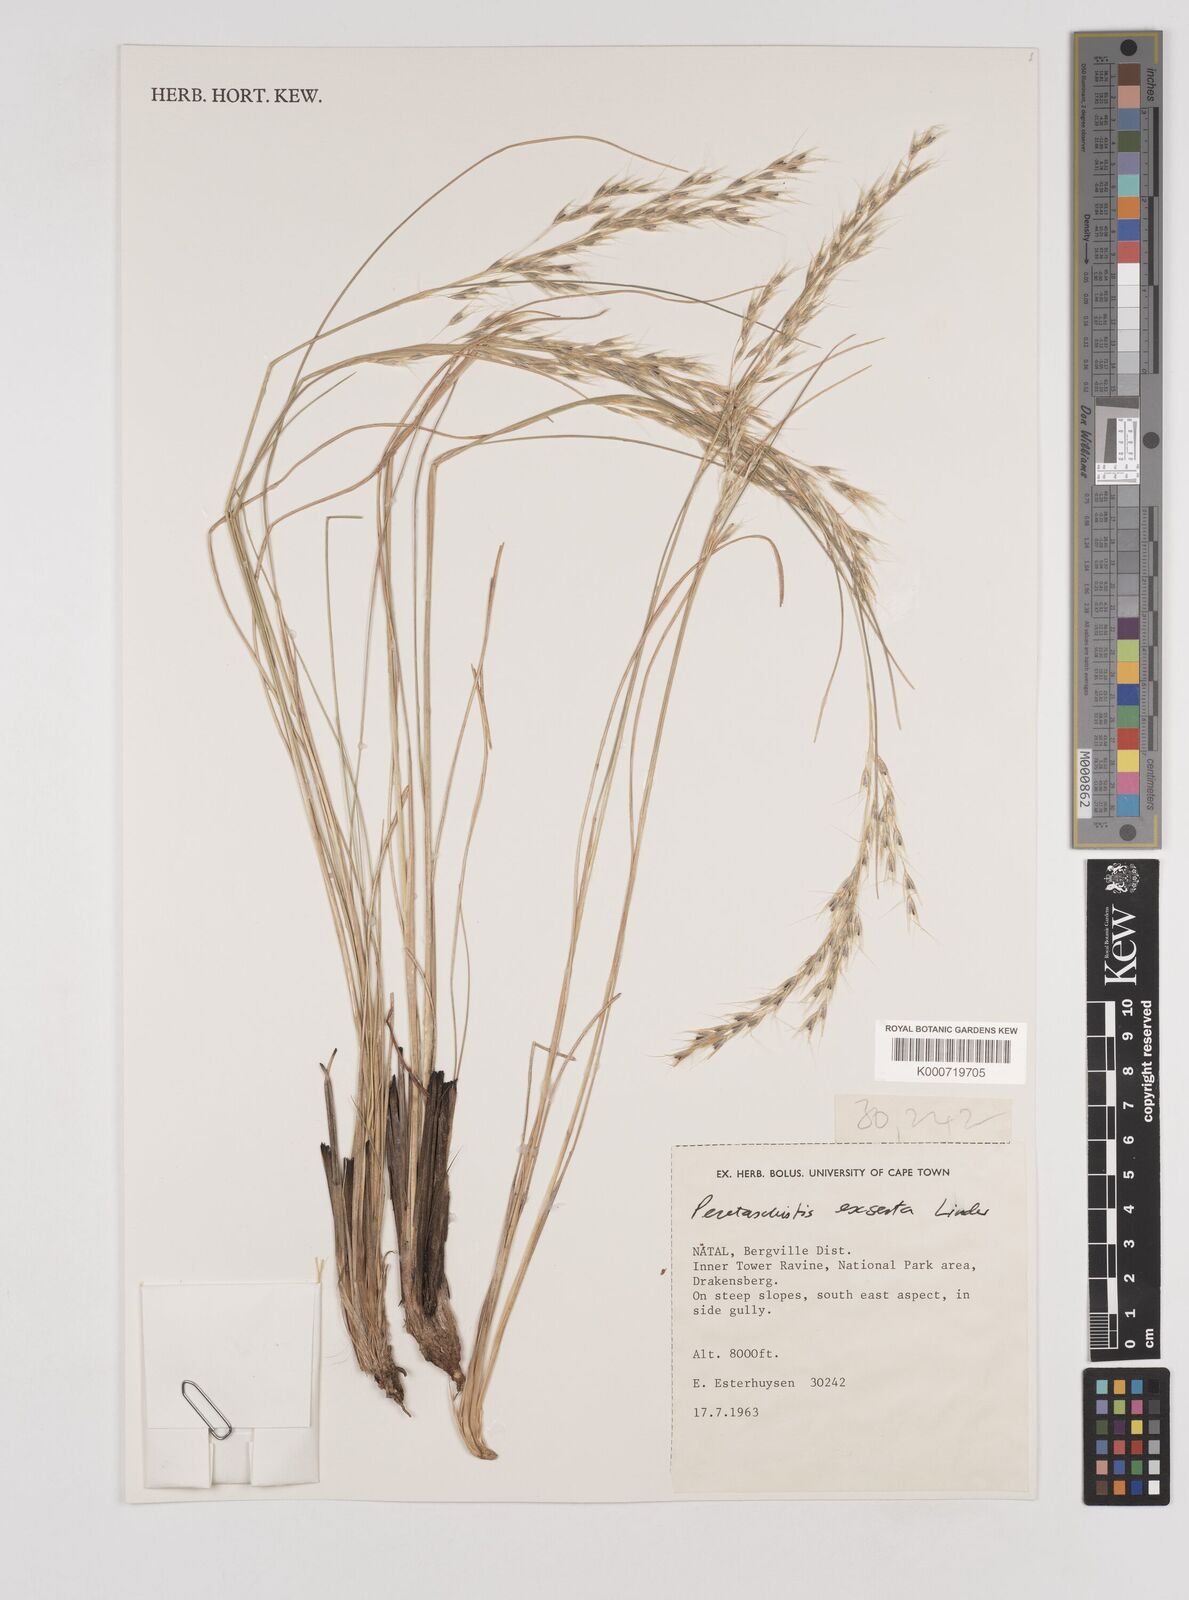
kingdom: Plantae
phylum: Tracheophyta
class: Liliopsida
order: Poales
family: Poaceae
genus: Pentameris
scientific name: Pentameris exserta
